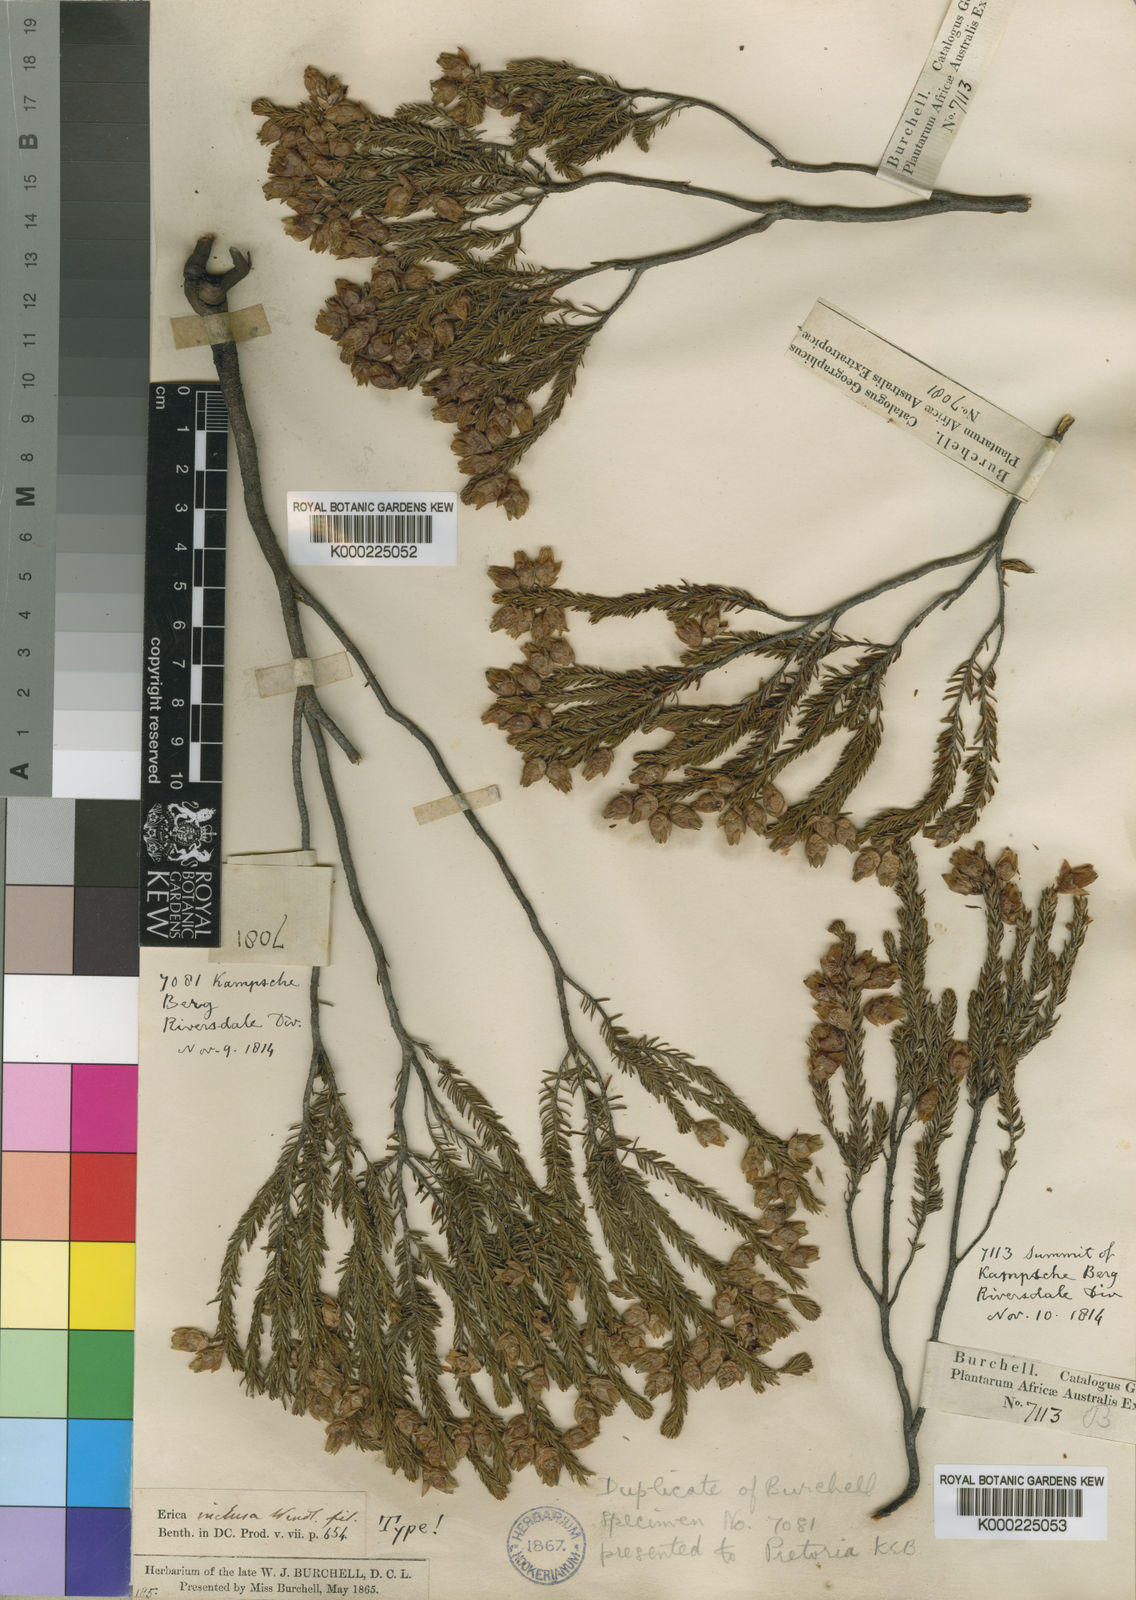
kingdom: Plantae
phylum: Tracheophyta
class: Magnoliopsida
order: Ericales
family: Ericaceae
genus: Erica
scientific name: Erica inclusa
